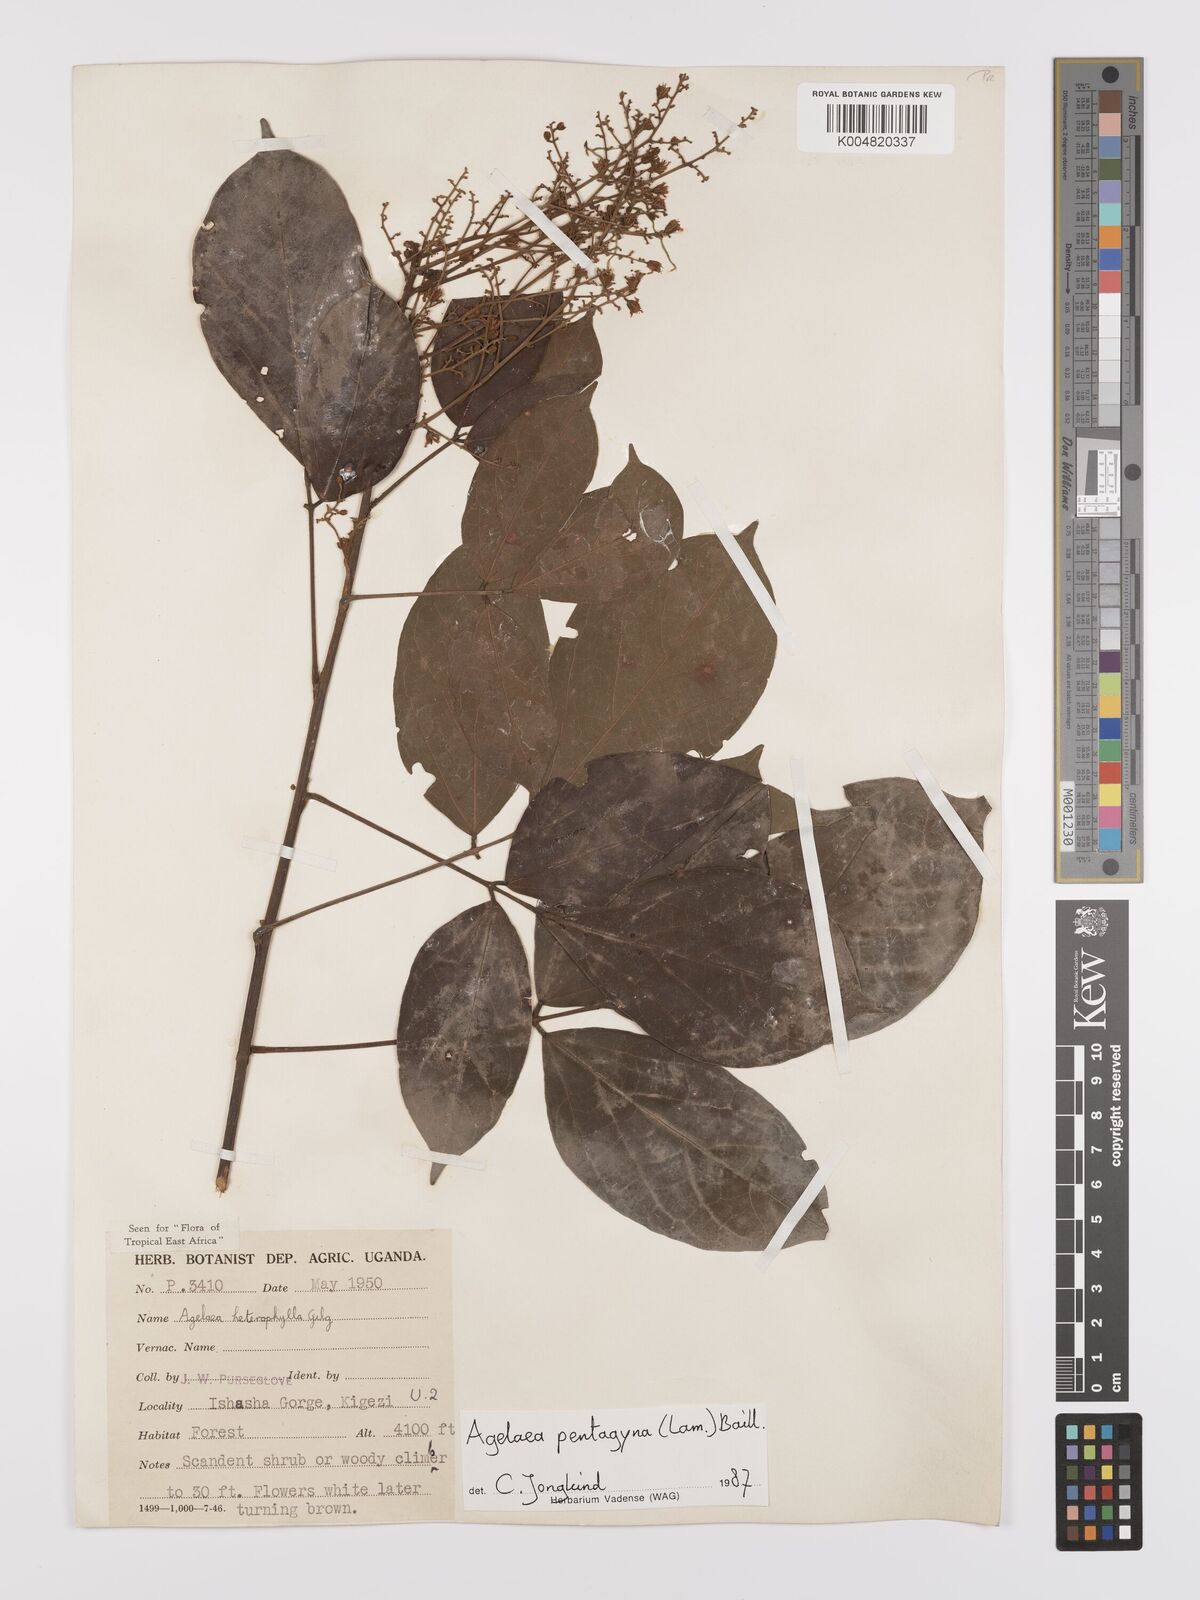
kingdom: Plantae
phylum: Tracheophyta
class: Magnoliopsida
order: Oxalidales
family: Connaraceae
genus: Agelaea
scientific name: Agelaea pentagyna
